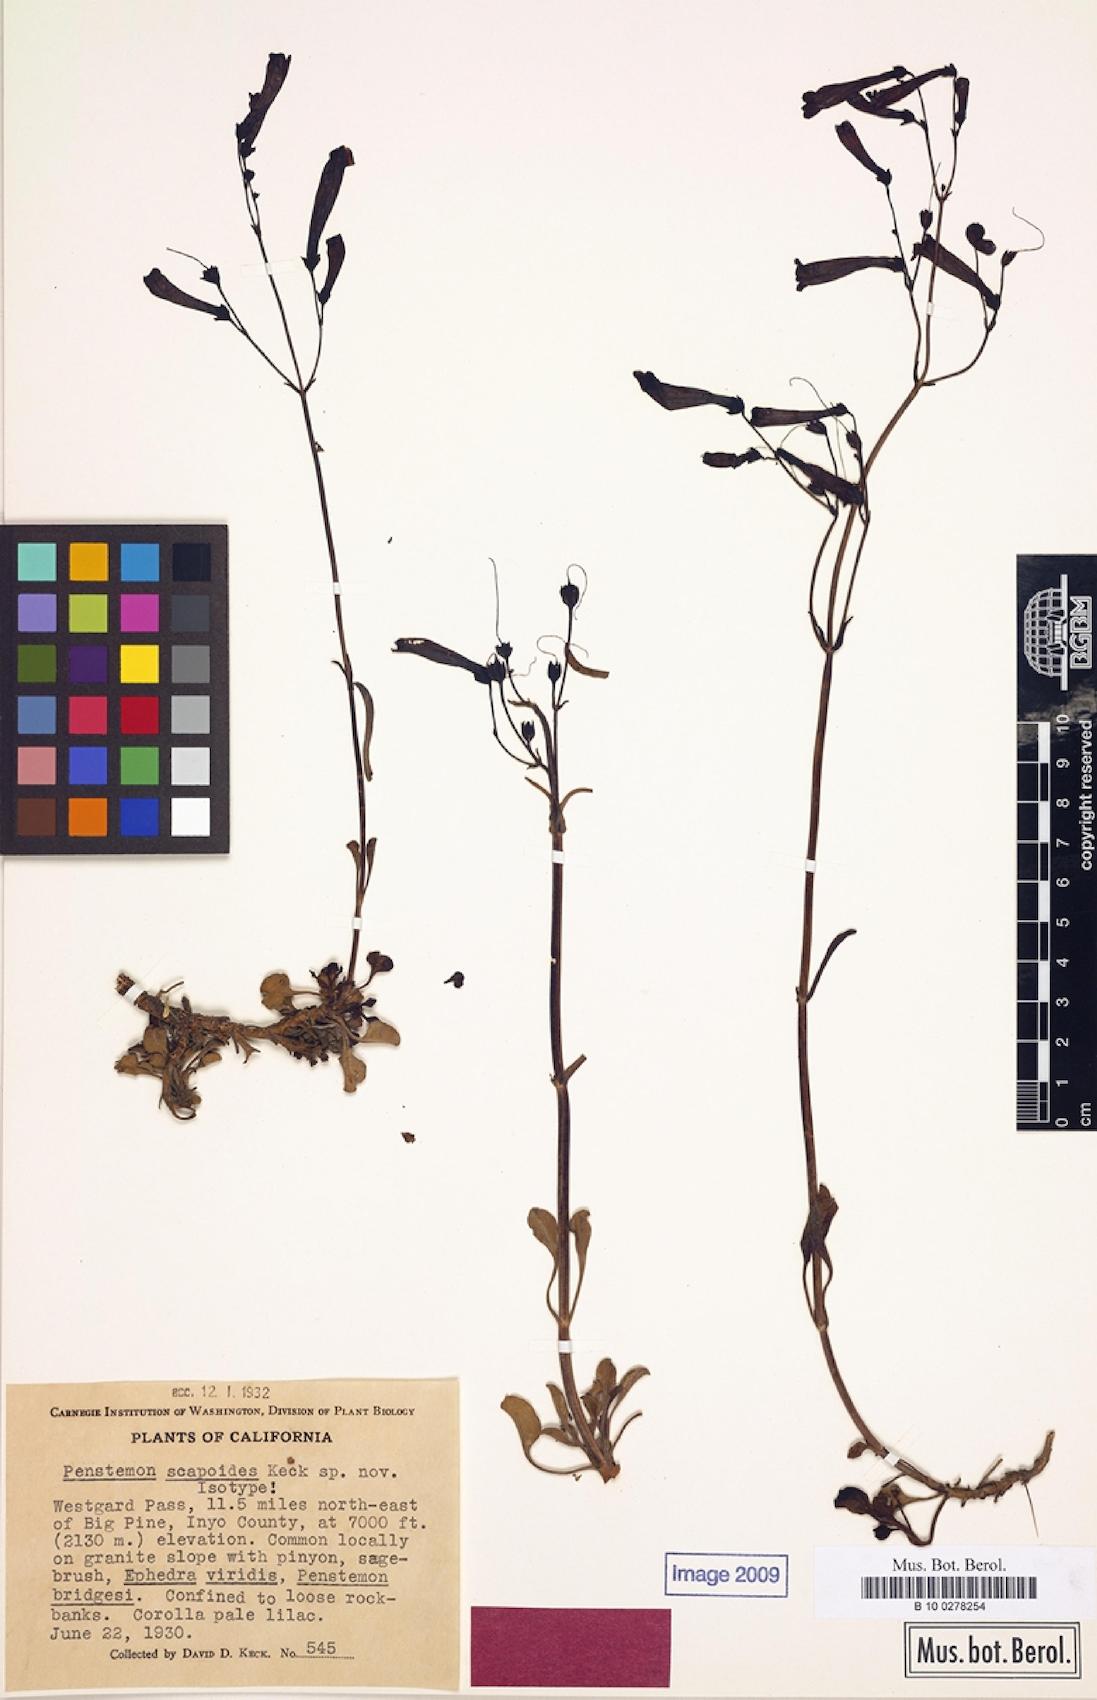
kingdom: Plantae
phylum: Tracheophyta
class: Magnoliopsida
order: Lamiales
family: Plantaginaceae
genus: Penstemon
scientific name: Penstemon scapoides
